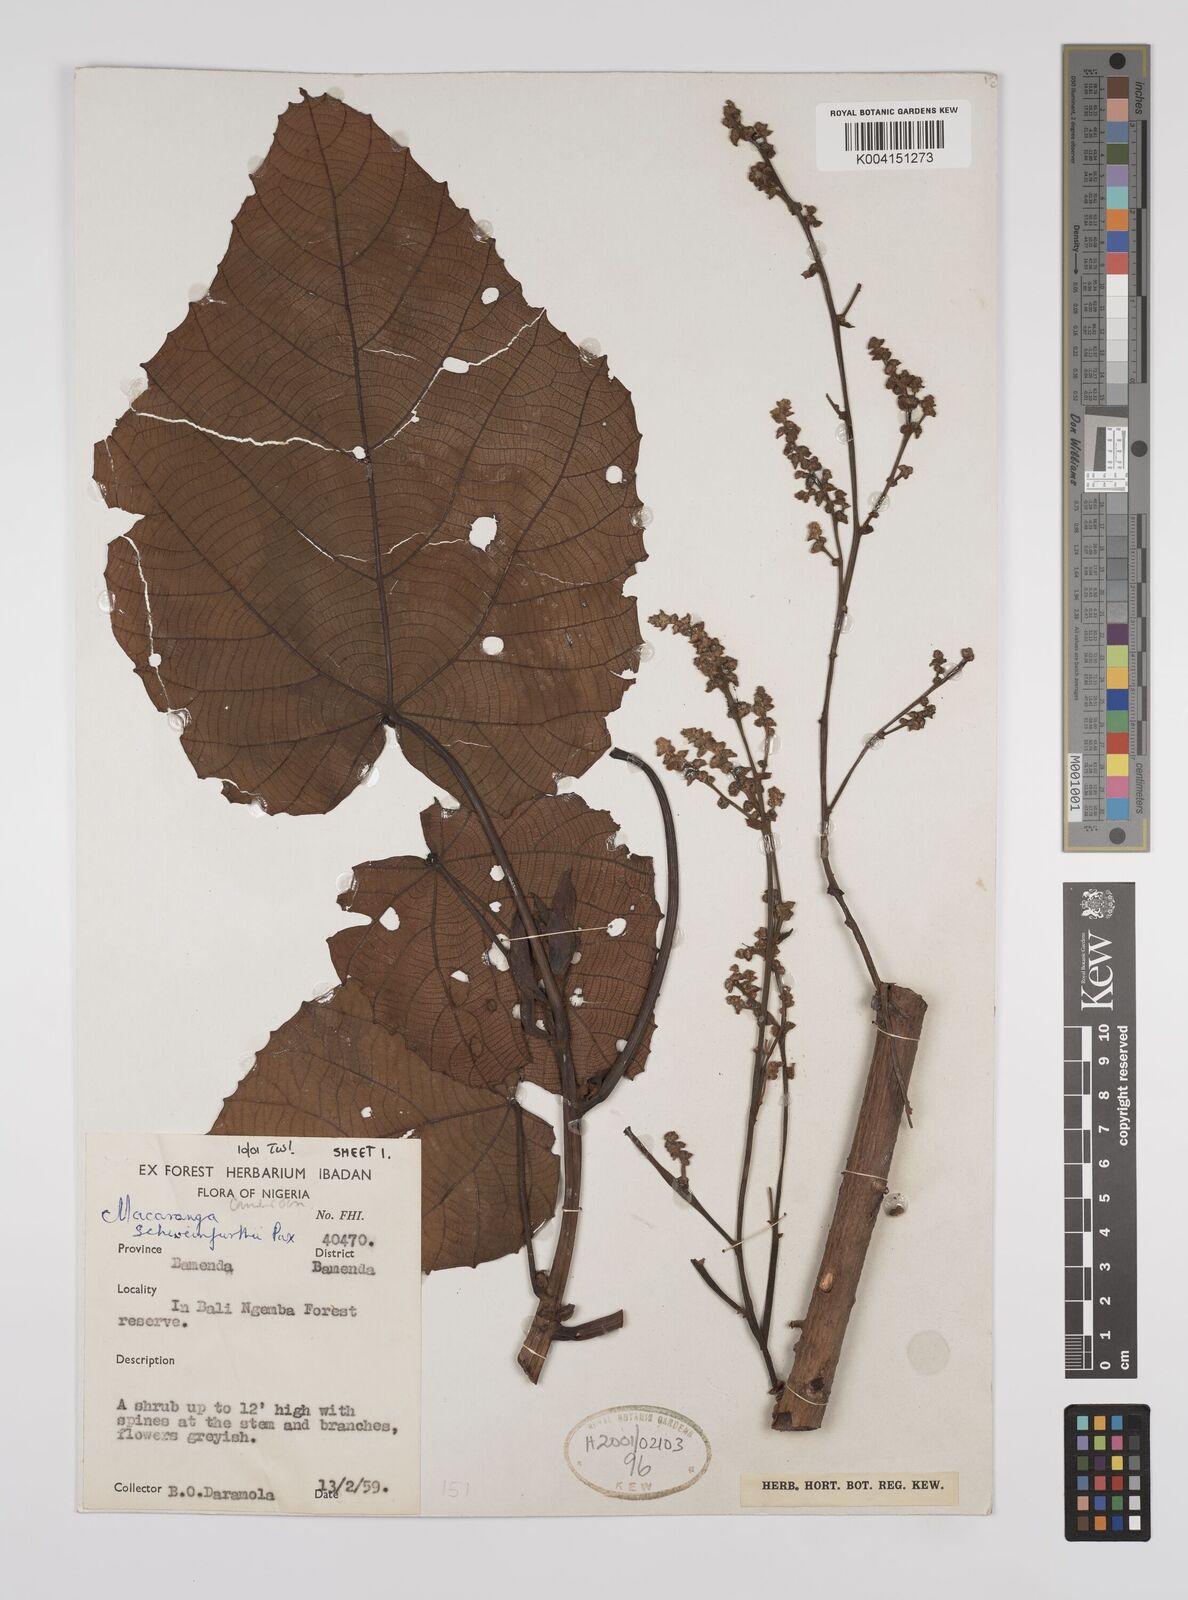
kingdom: Plantae
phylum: Tracheophyta
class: Magnoliopsida
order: Malpighiales
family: Euphorbiaceae
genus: Macaranga
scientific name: Macaranga schweinfurthii
